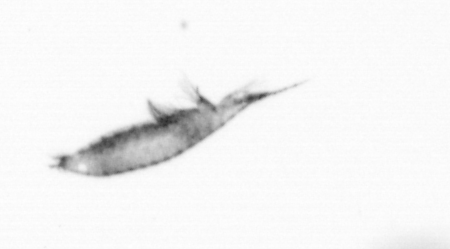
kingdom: Animalia
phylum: Arthropoda
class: Copepoda
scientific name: Copepoda
